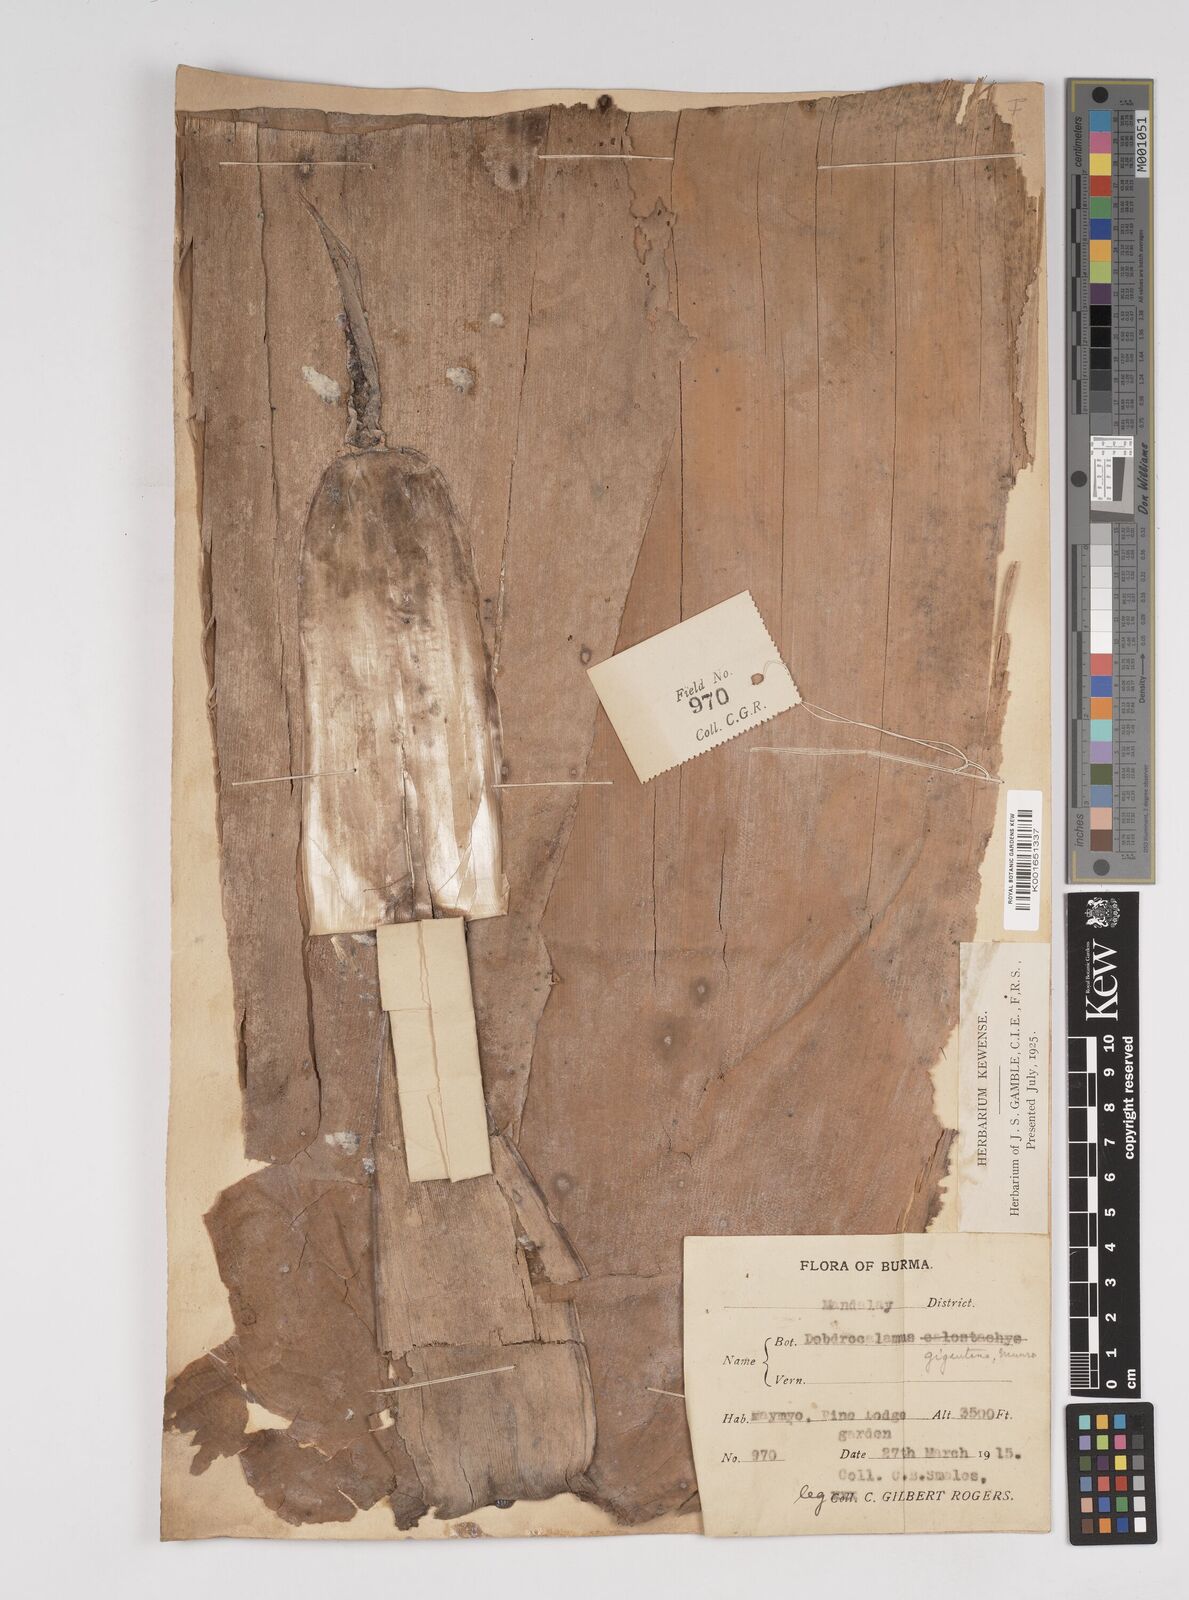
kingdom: Plantae
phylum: Tracheophyta
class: Liliopsida
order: Poales
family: Poaceae
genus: Dendrocalamus
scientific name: Dendrocalamus giganteus
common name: Giant bamboo
